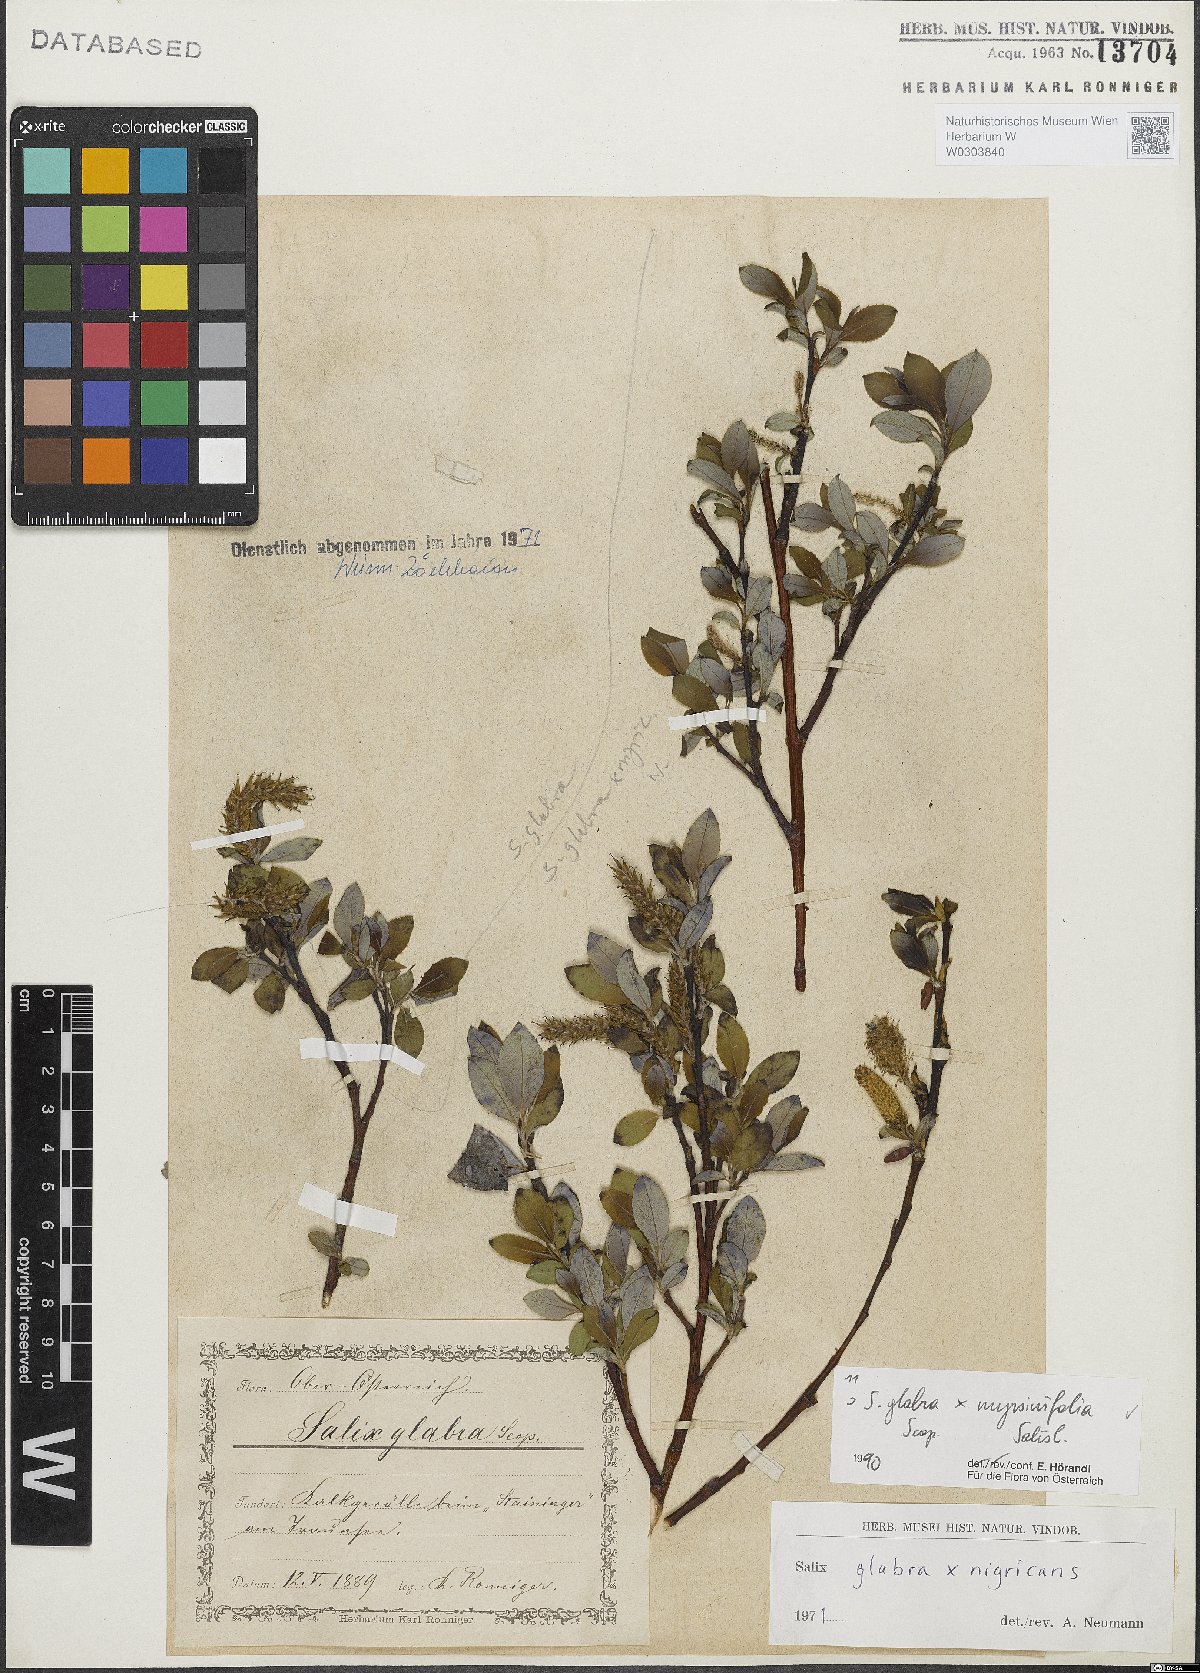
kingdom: Plantae
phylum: Tracheophyta
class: Magnoliopsida
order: Malpighiales
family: Salicaceae
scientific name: Salicaceae
